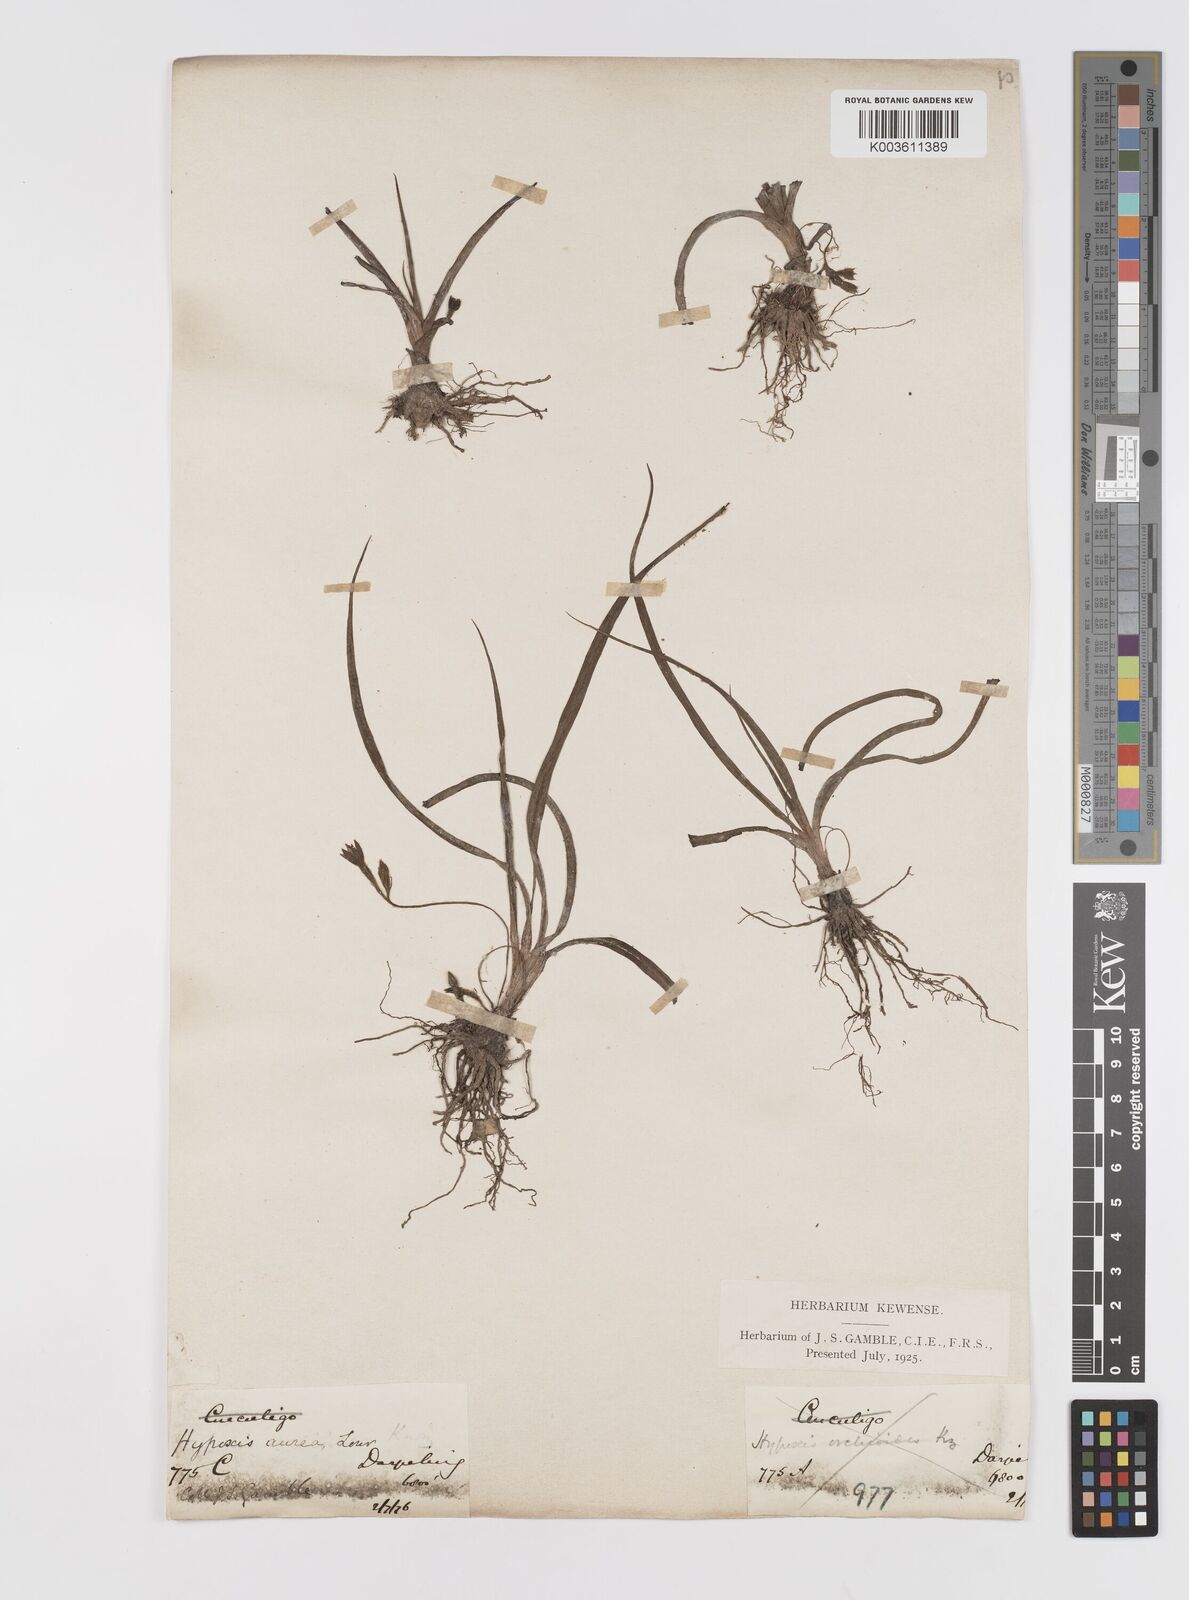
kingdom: Plantae
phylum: Tracheophyta
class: Liliopsida
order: Asparagales
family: Hypoxidaceae
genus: Hypoxis
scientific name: Hypoxis aurea
